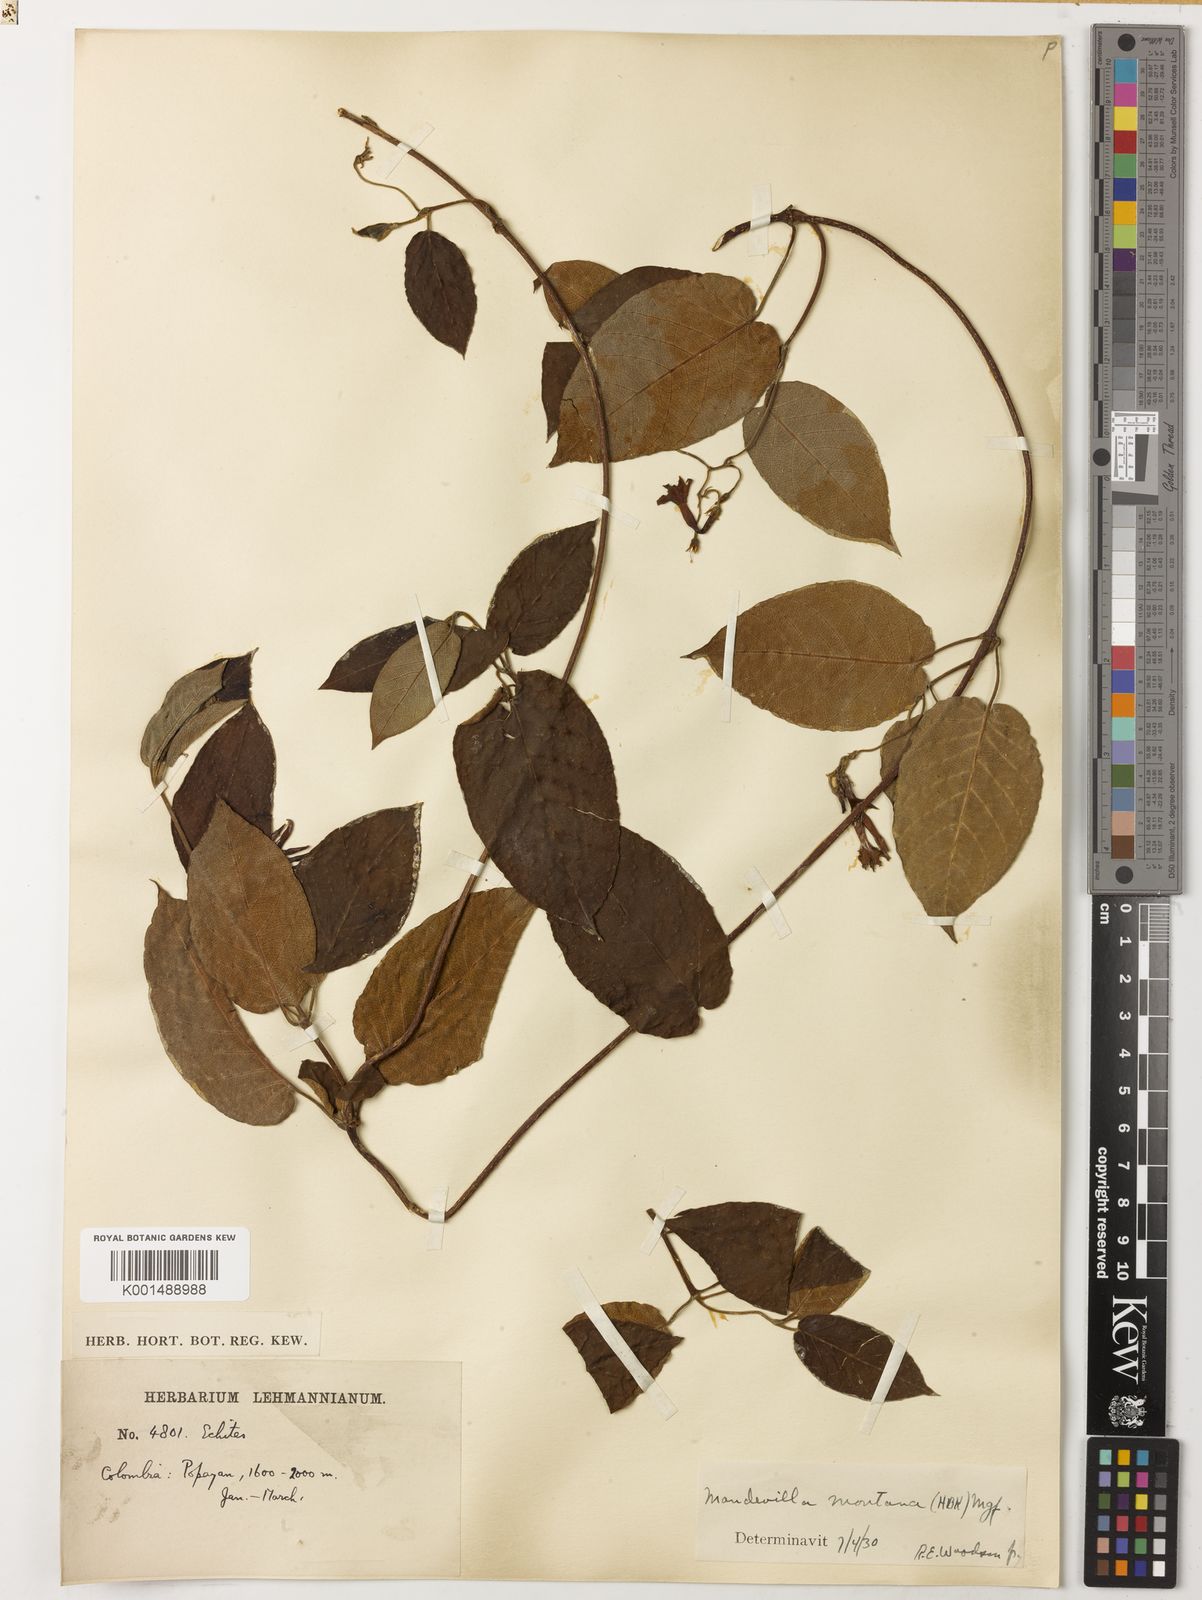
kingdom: Plantae
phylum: Tracheophyta
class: Magnoliopsida
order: Gentianales
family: Apocynaceae
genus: Mandevilla
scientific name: Mandevilla montana
